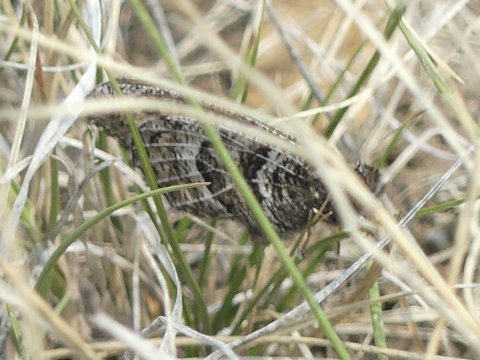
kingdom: Animalia
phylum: Arthropoda
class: Insecta
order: Lepidoptera
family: Nymphalidae
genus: Oeneis
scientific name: Oeneis alberta
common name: Alberta Arctic
